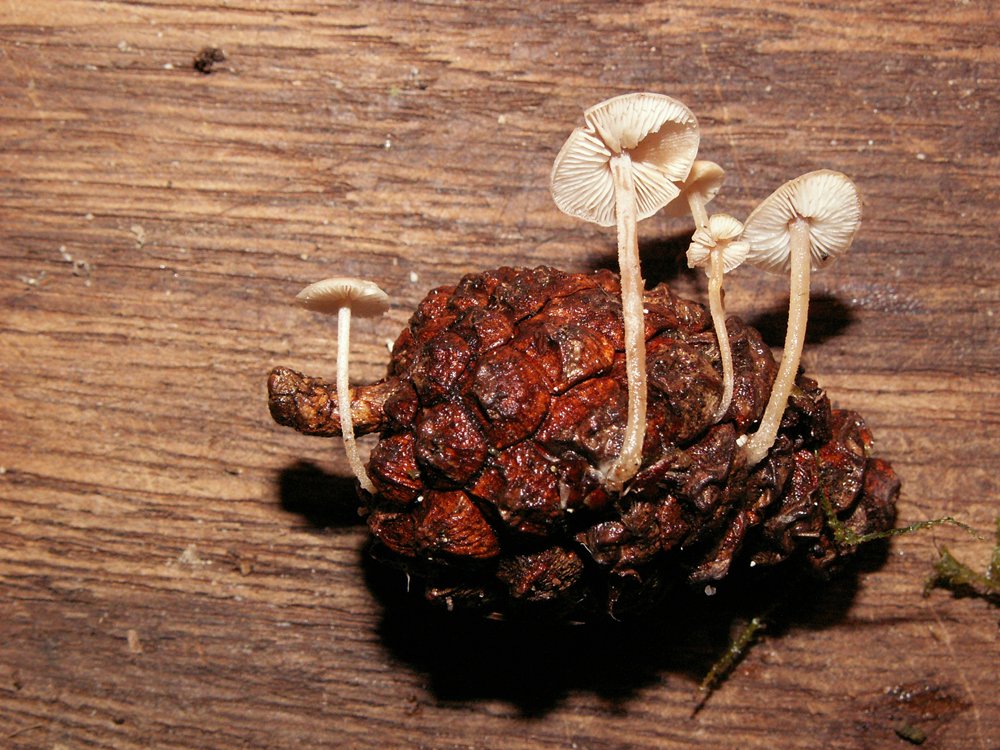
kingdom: Fungi
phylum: Basidiomycota
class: Agaricomycetes
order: Agaricales
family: Marasmiaceae
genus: Baeospora
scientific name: Baeospora myosura
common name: koglebruskhat
